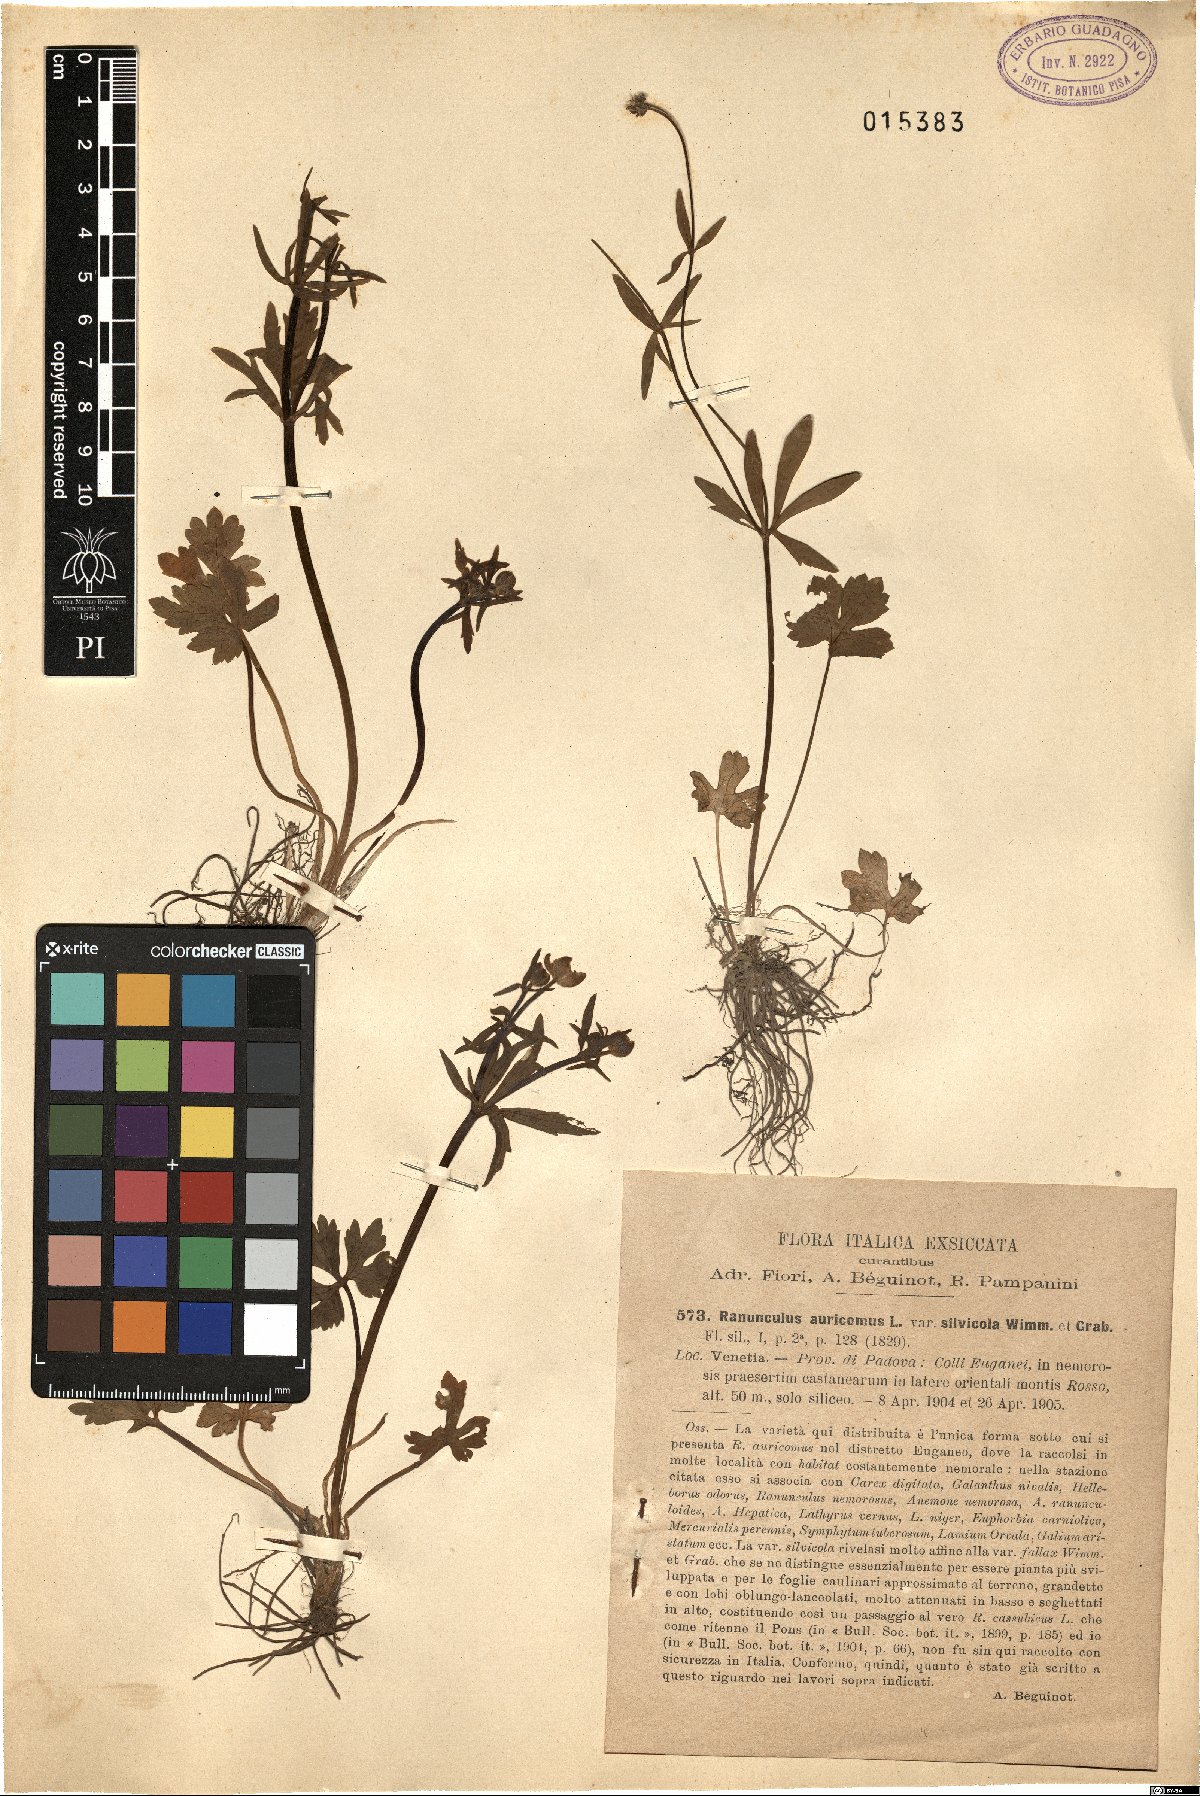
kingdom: Plantae
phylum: Tracheophyta
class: Magnoliopsida
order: Ranunculales
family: Ranunculaceae
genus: Ranunculus
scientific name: Ranunculus silvicola
